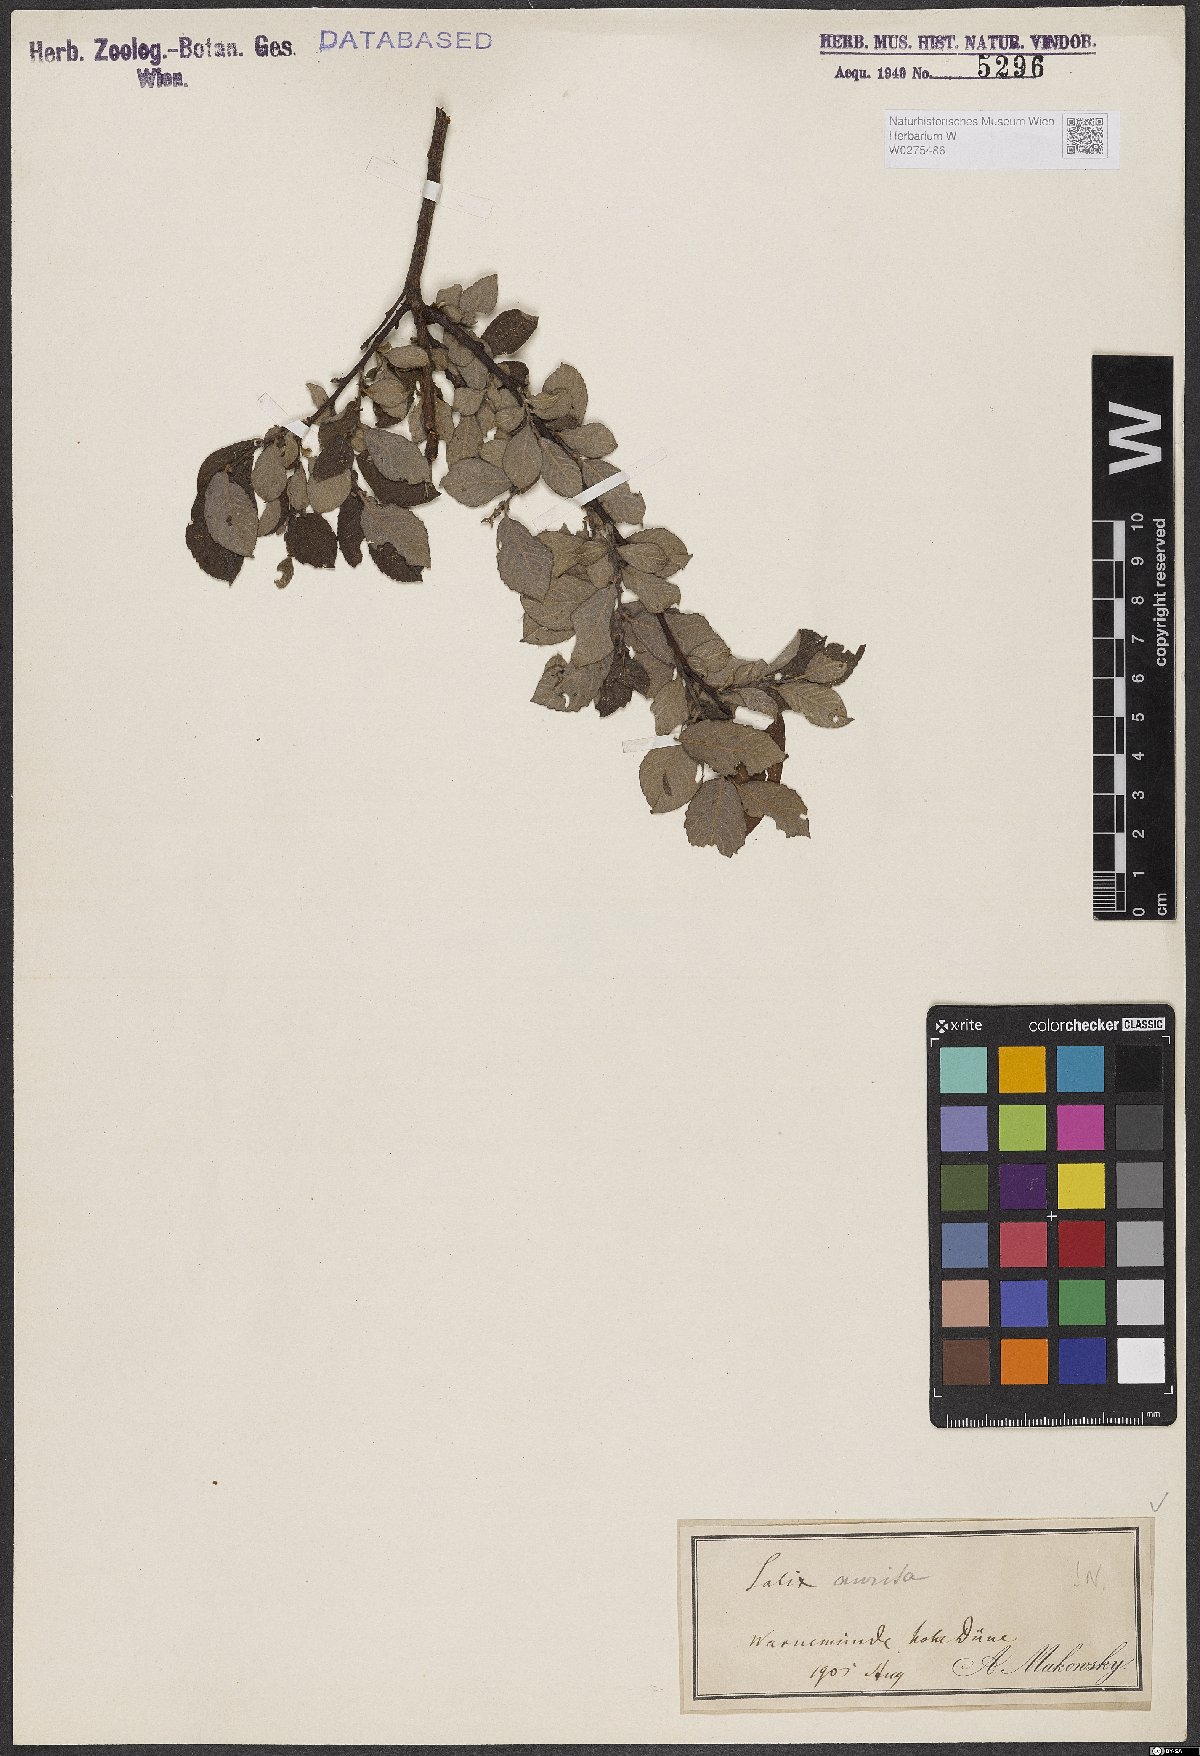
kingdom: Plantae
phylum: Tracheophyta
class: Magnoliopsida
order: Malpighiales
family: Salicaceae
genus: Salix
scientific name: Salix aurita
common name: Eared willow
